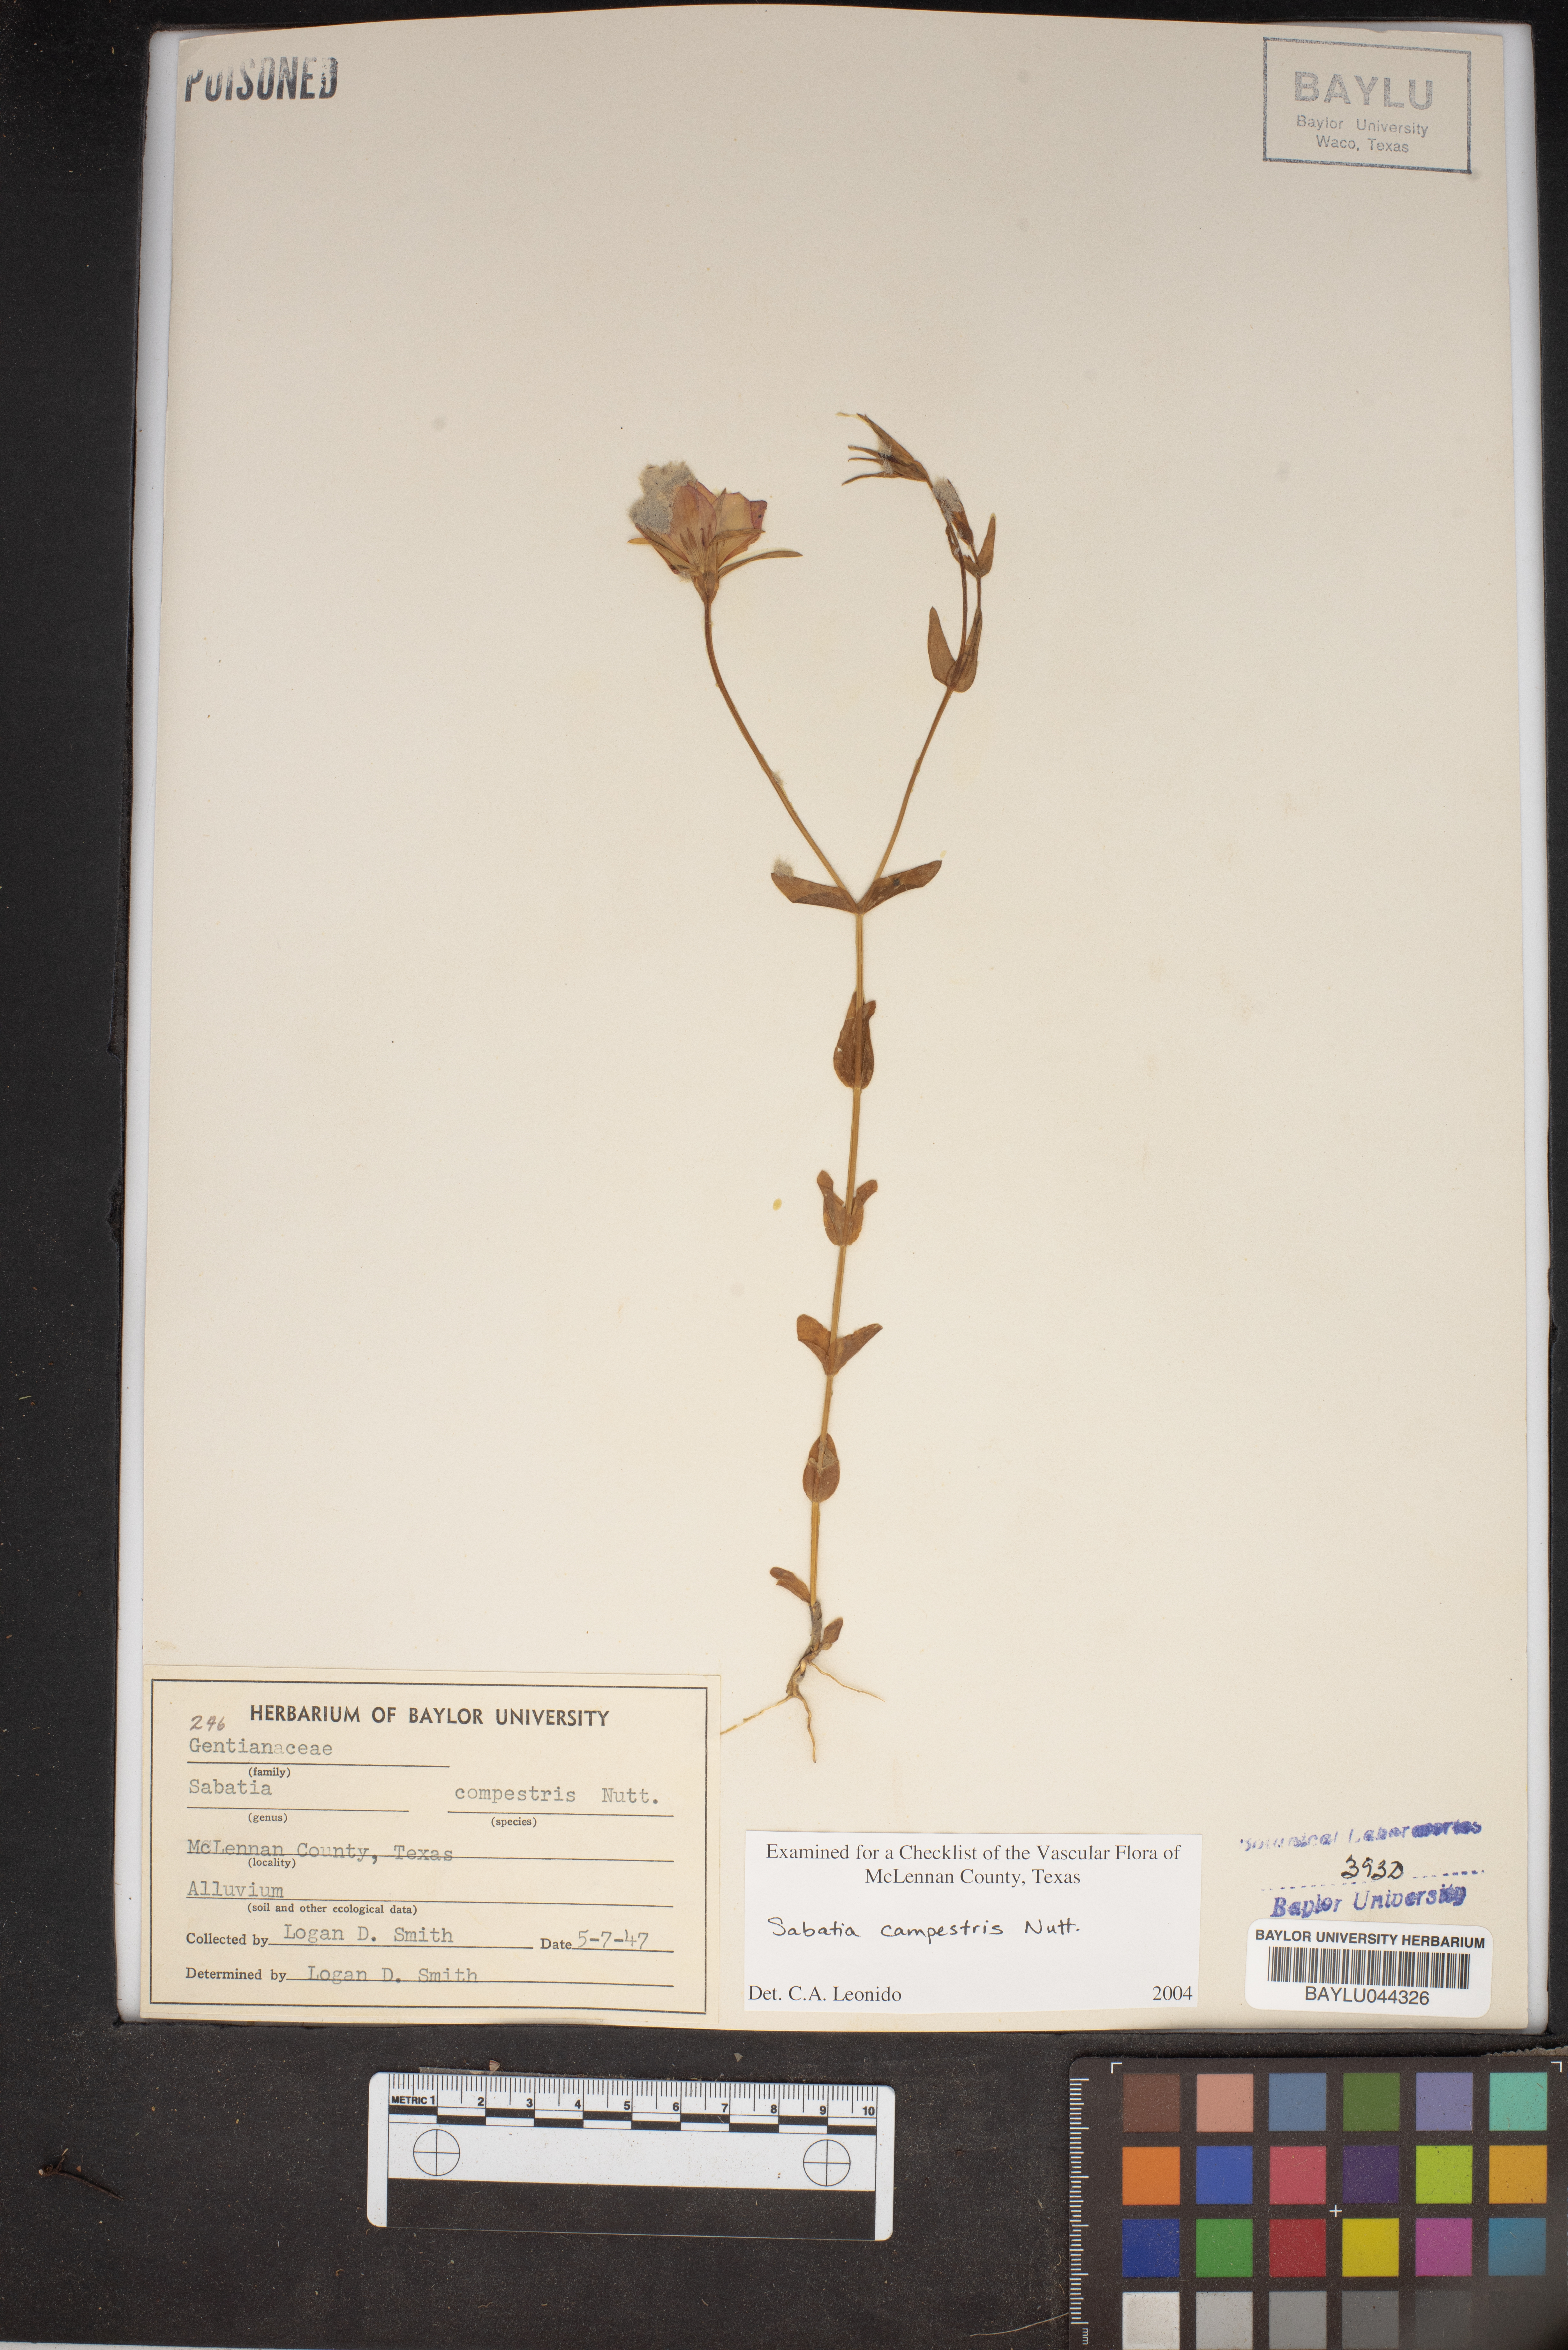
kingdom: Plantae
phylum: Tracheophyta
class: Magnoliopsida
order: Gentianales
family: Gentianaceae
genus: Sabatia
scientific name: Sabatia campestris
